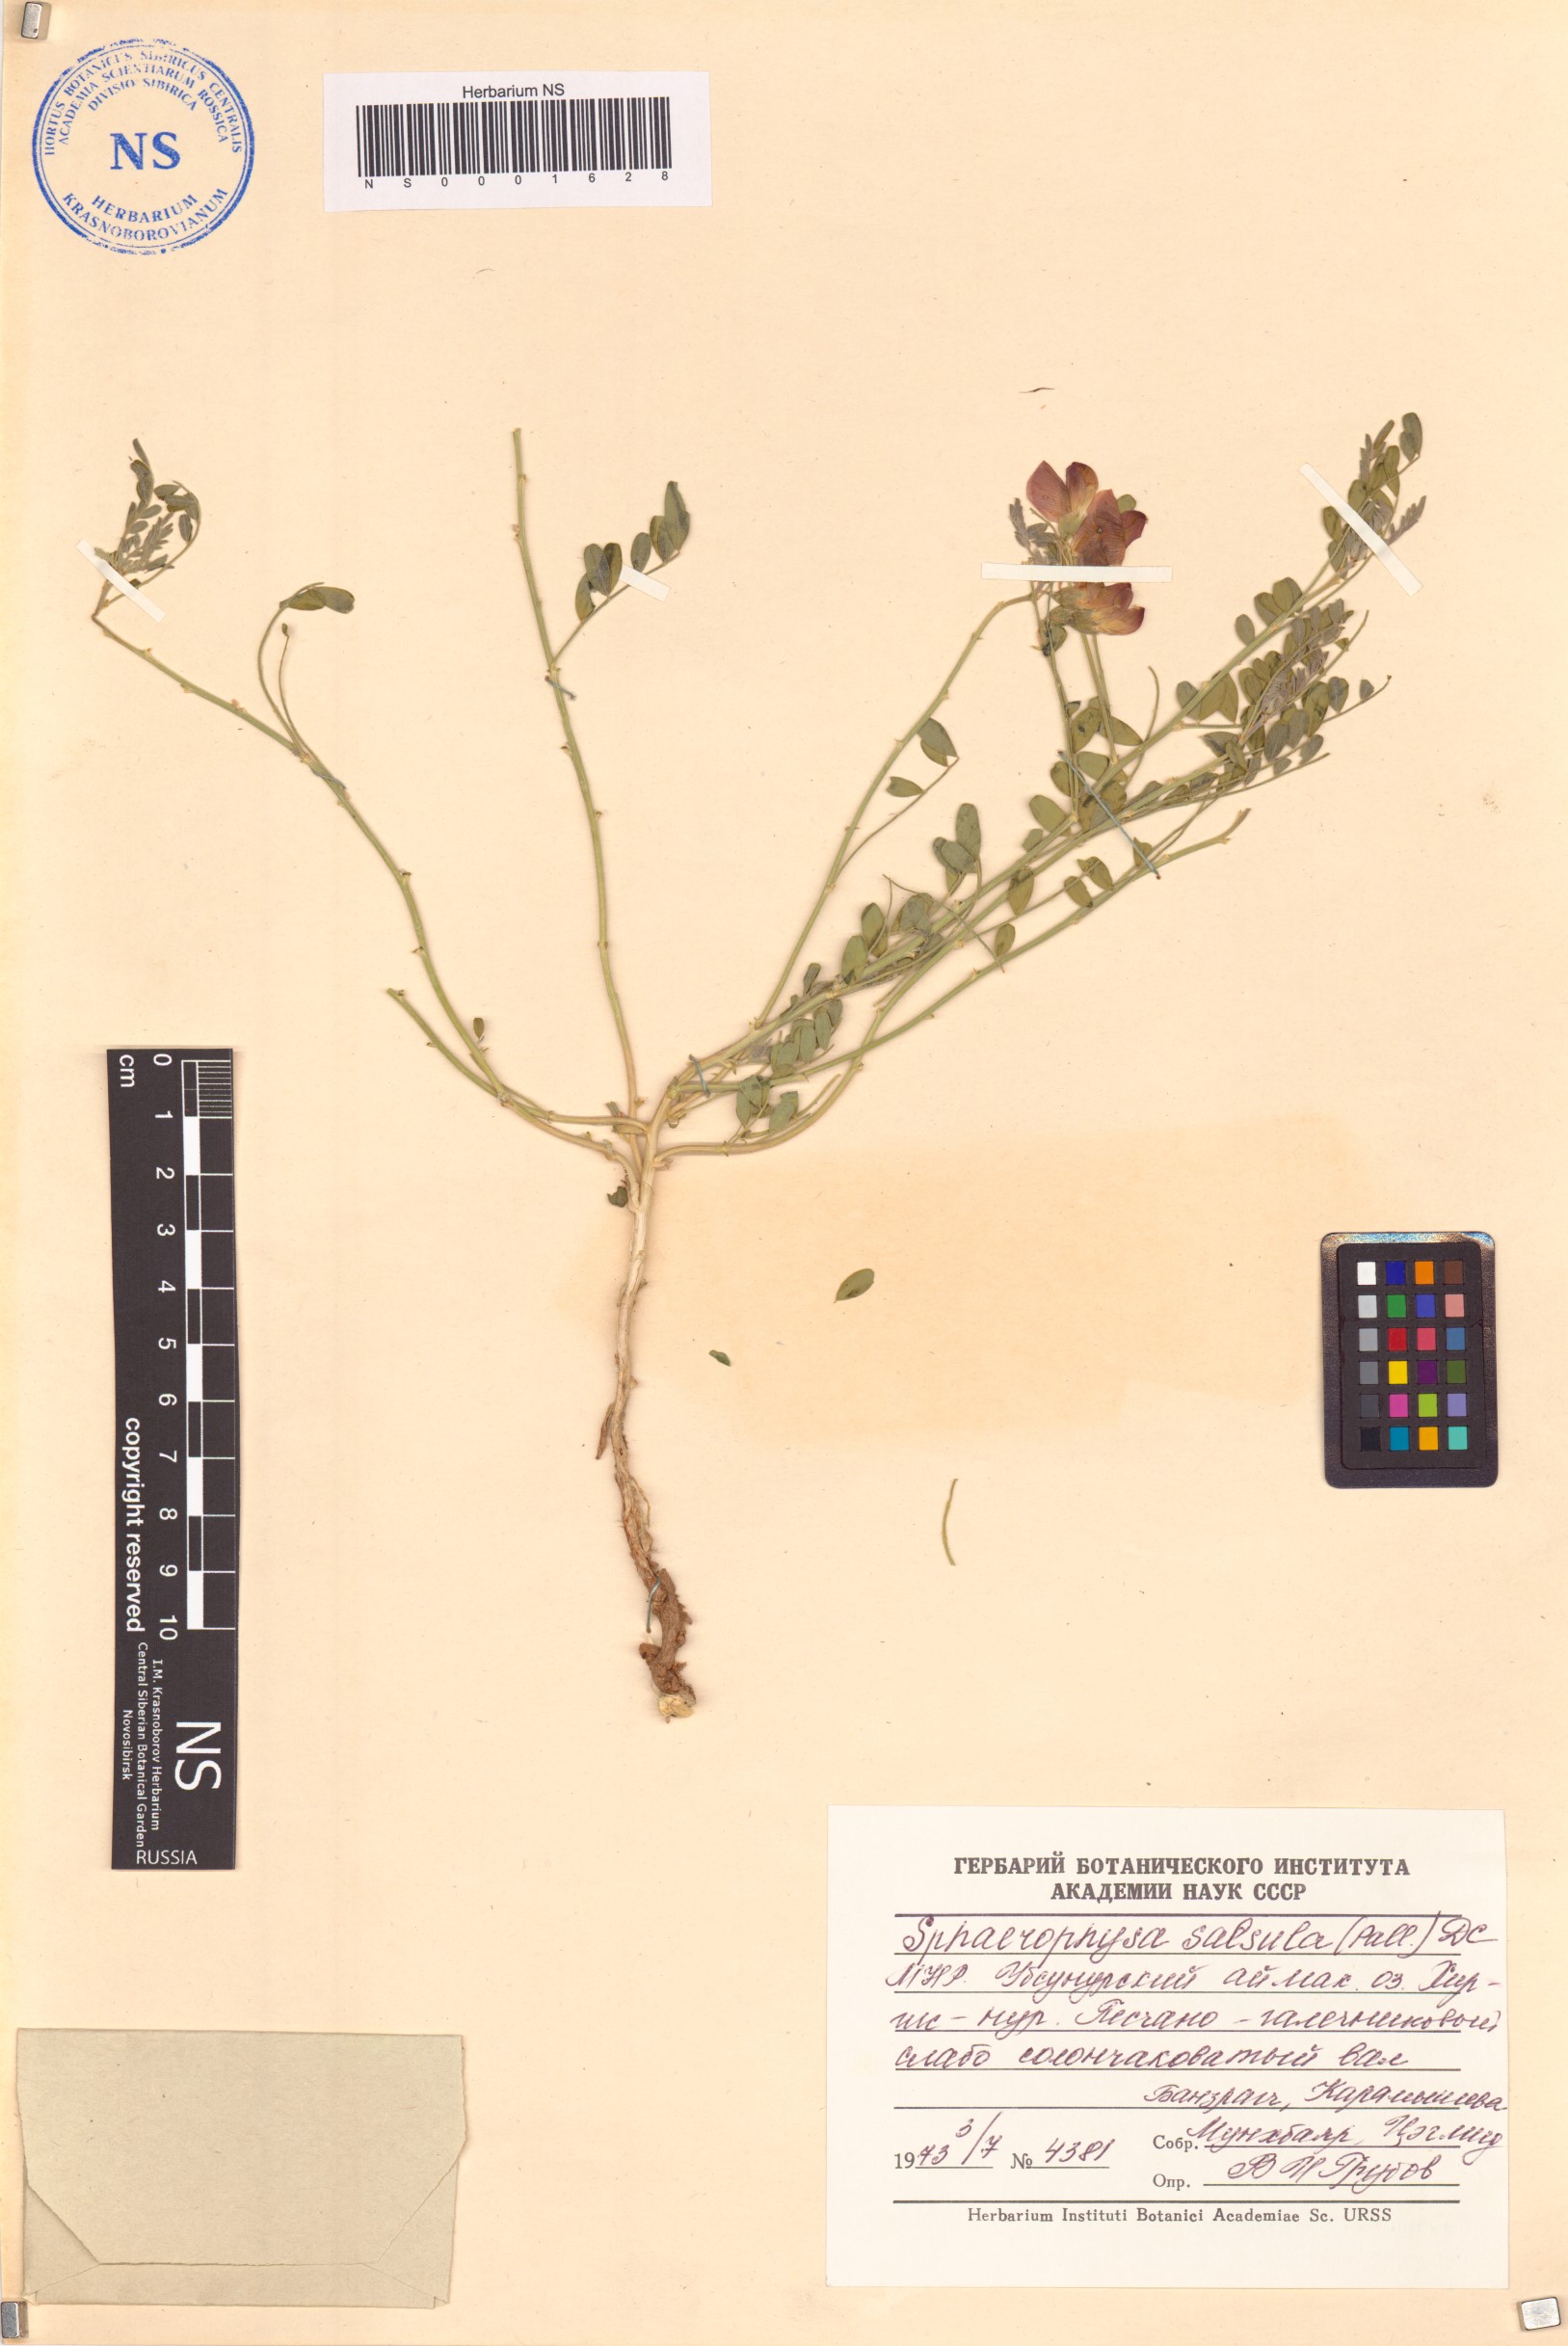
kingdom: Plantae
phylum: Tracheophyta
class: Magnoliopsida
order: Fabales
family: Fabaceae
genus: Sphaerophysa
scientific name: Sphaerophysa salsula
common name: Alkali swainsonpea
